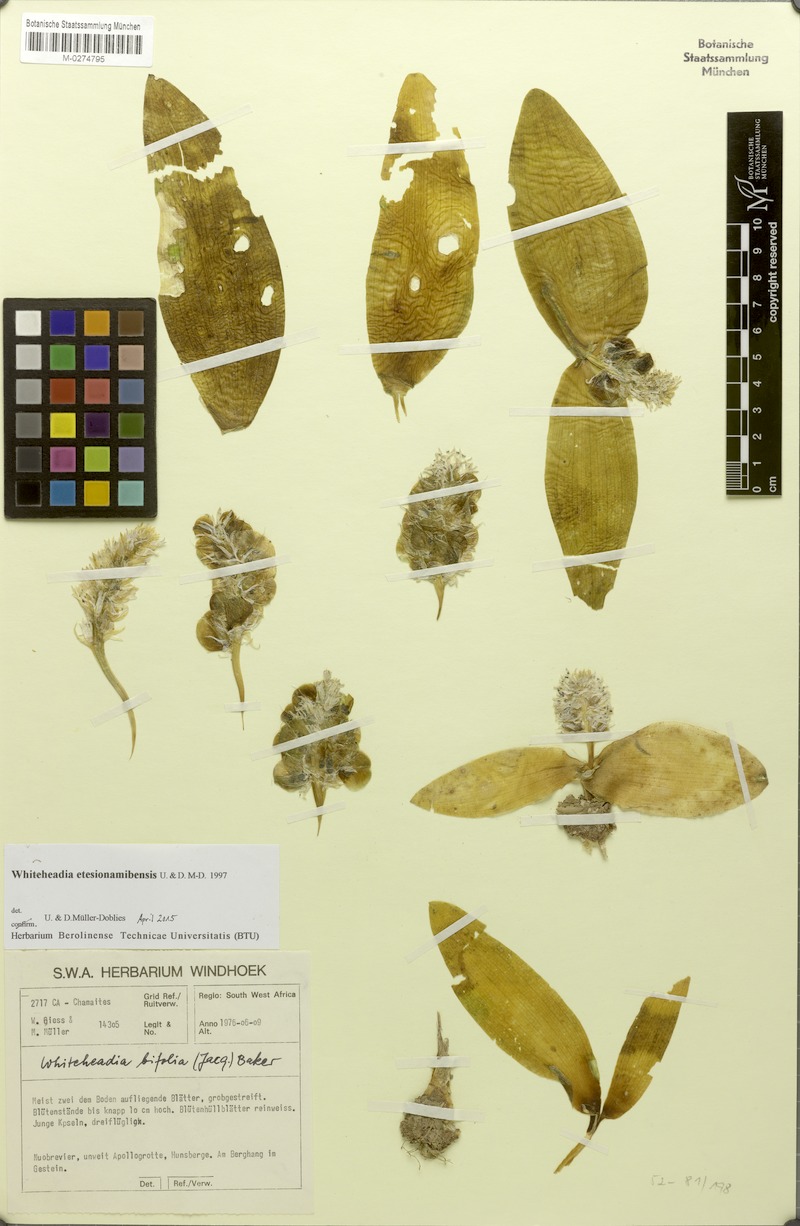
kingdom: Plantae
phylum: Tracheophyta
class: Liliopsida
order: Asparagales
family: Asparagaceae
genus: Massonia
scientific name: Massonia etesionamibensis
